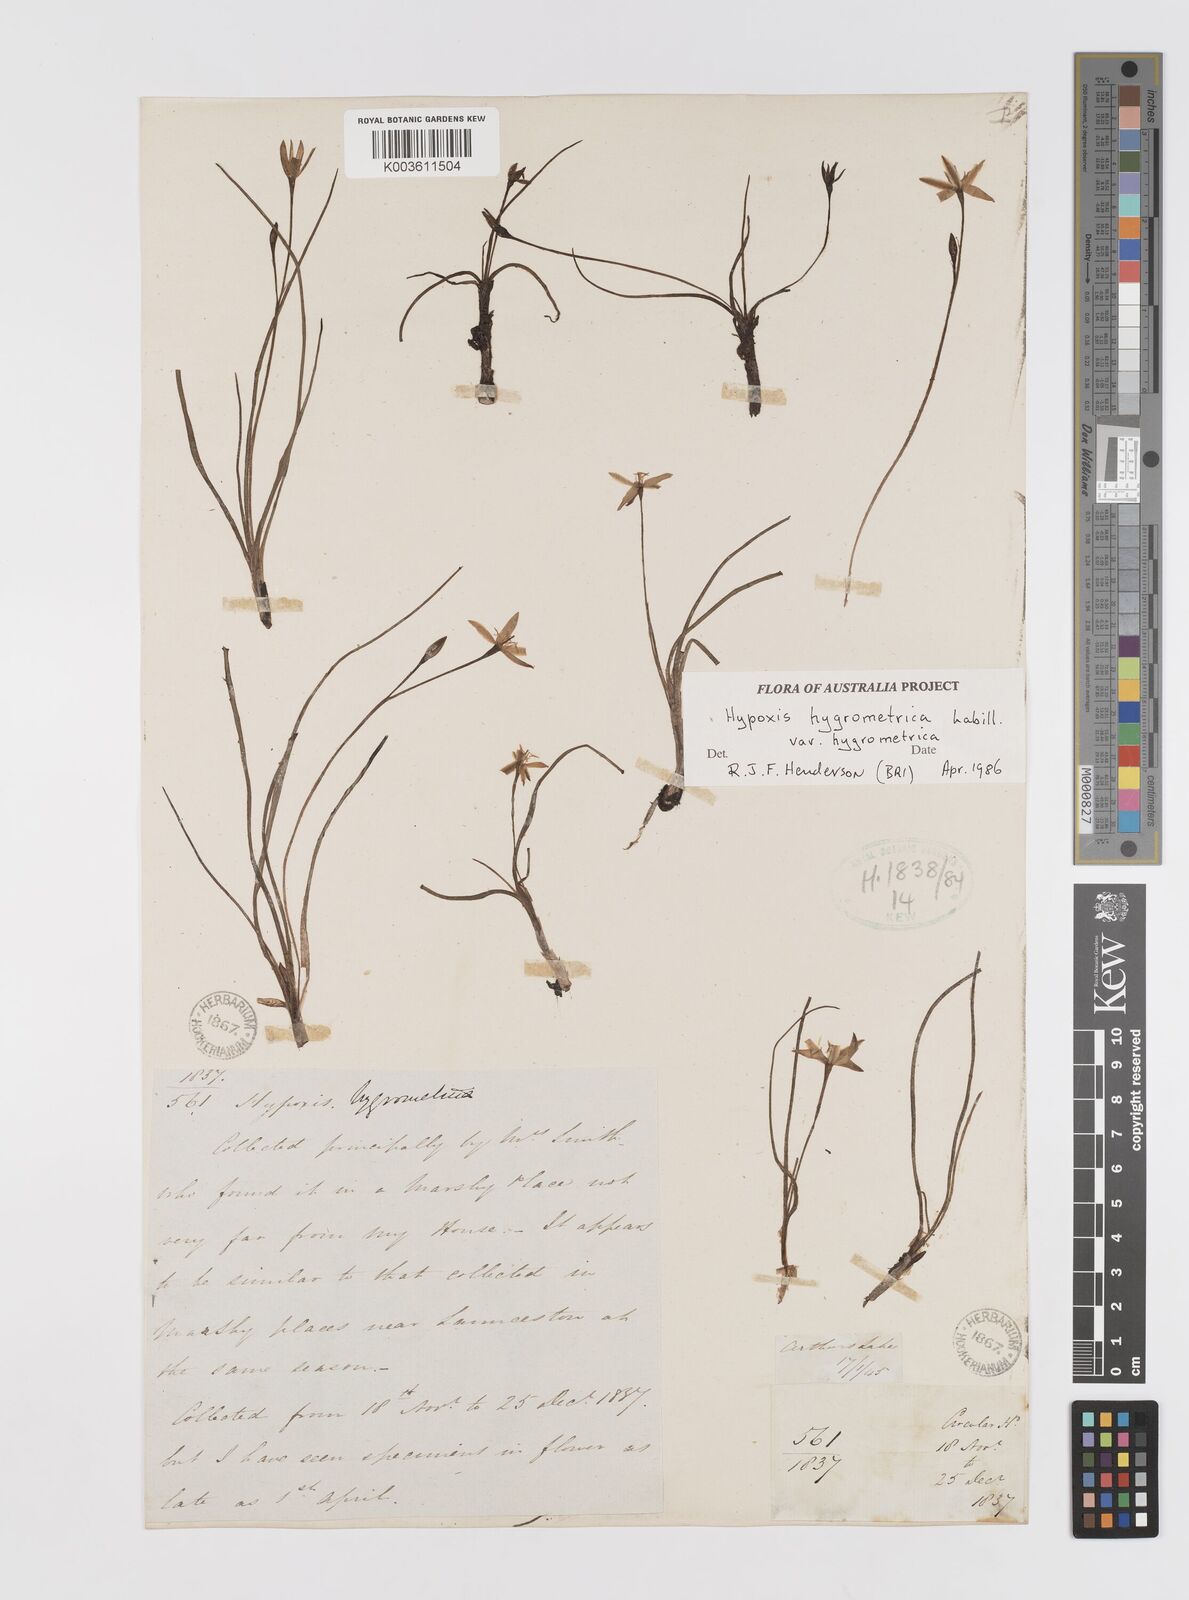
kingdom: Plantae
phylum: Tracheophyta
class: Liliopsida
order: Asparagales
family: Hypoxidaceae
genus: Hypoxis
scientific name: Hypoxis hygrometrica
